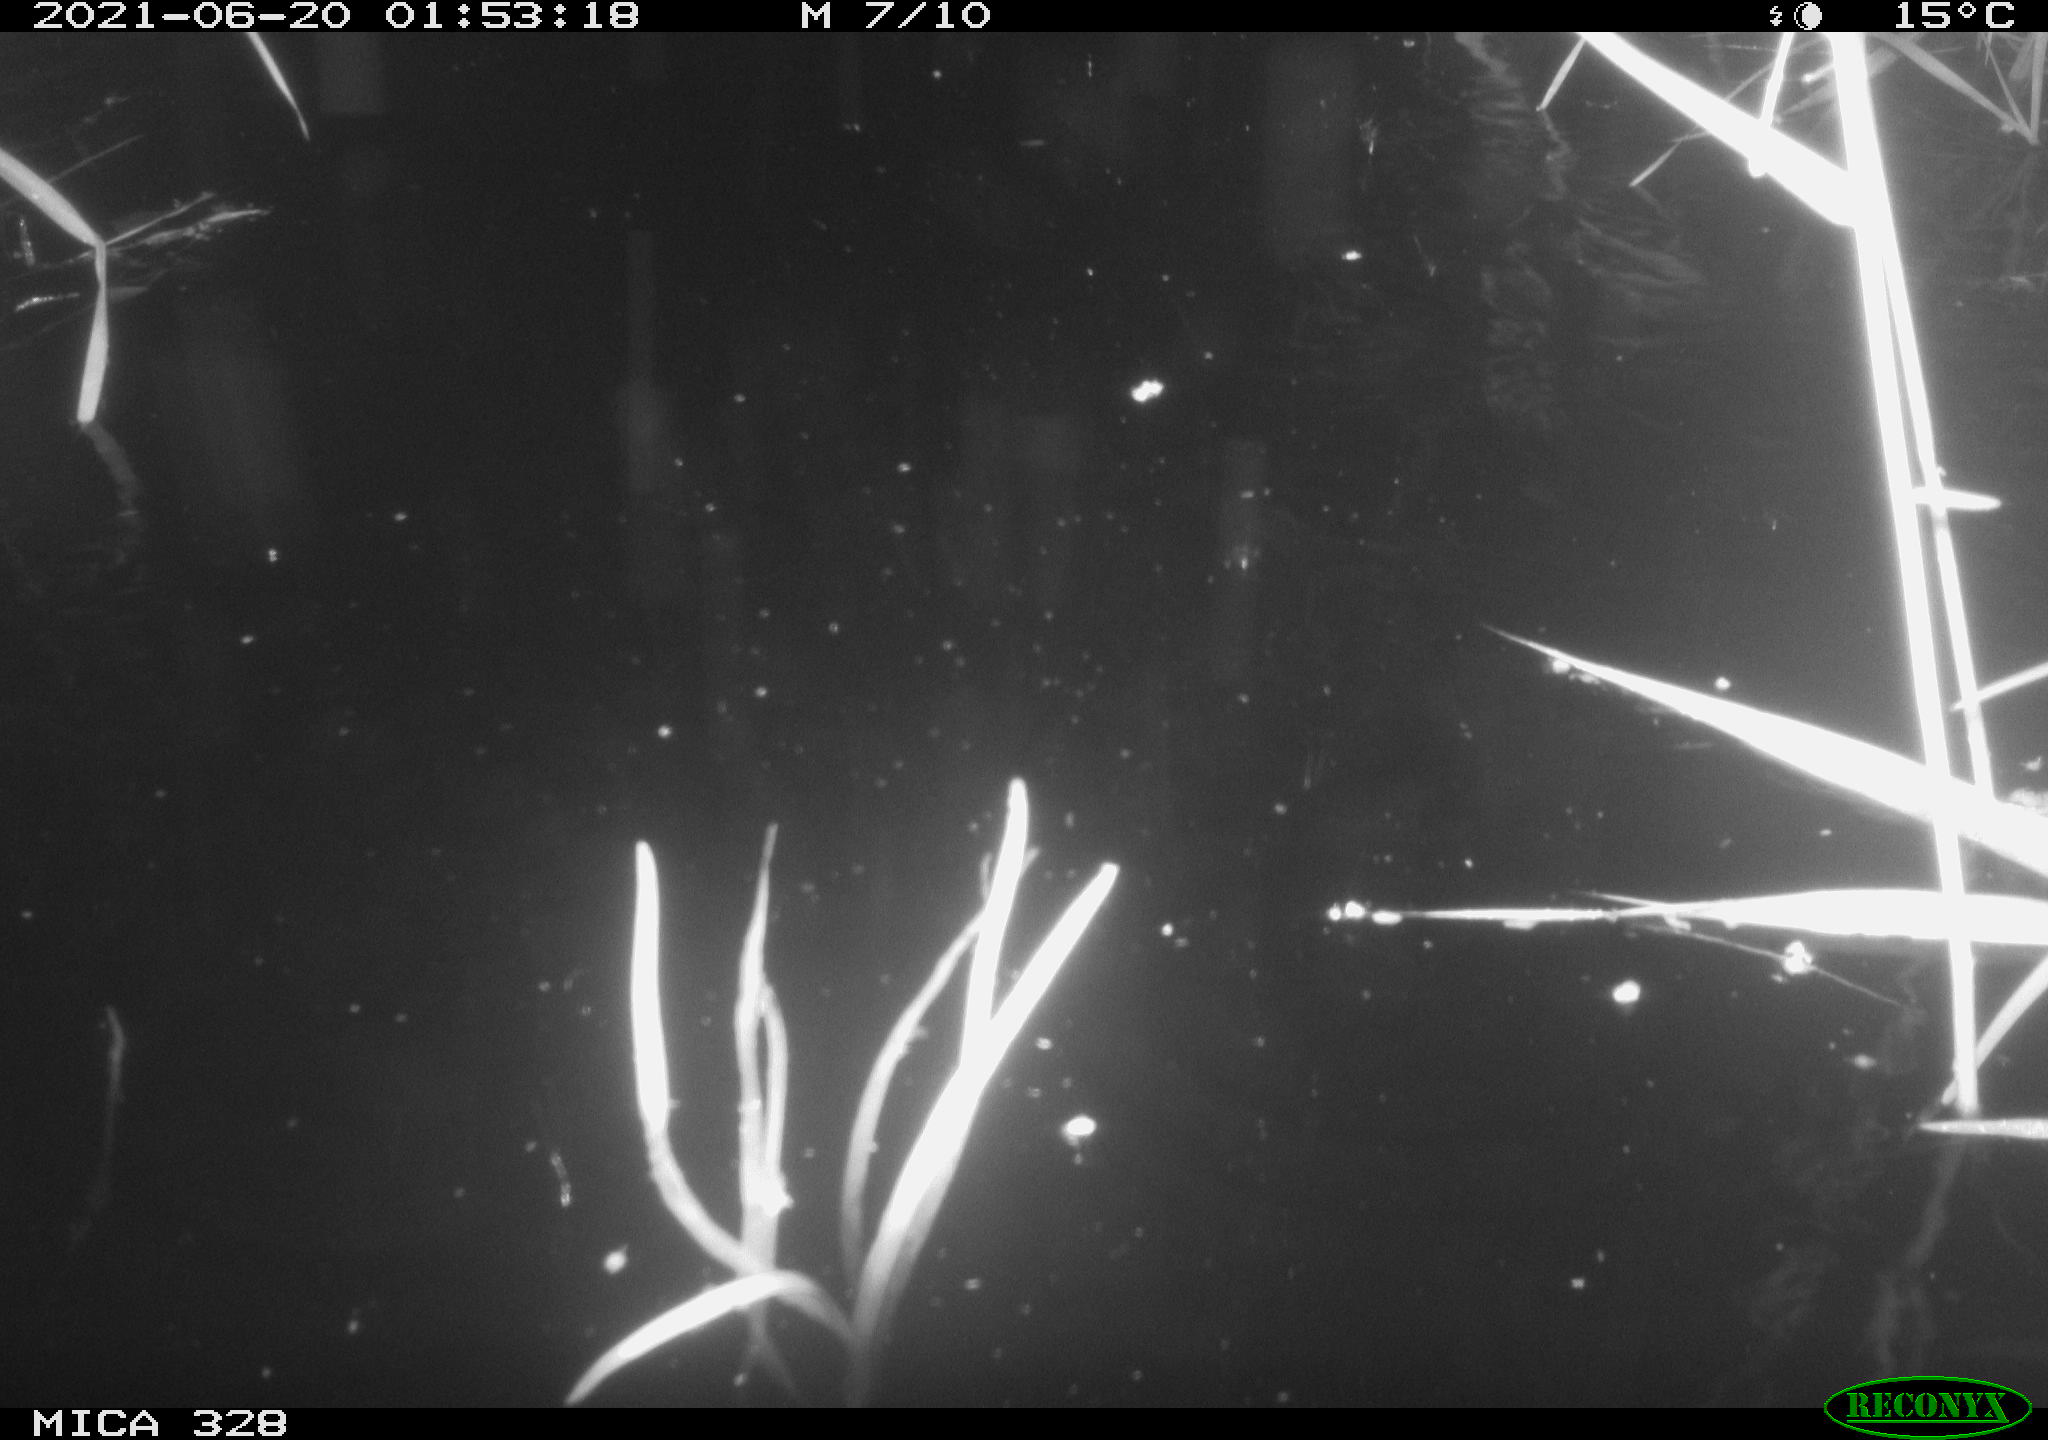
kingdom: Animalia
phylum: Chordata
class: Mammalia
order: Rodentia
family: Cricetidae
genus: Ondatra
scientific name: Ondatra zibethicus
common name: Muskrat
